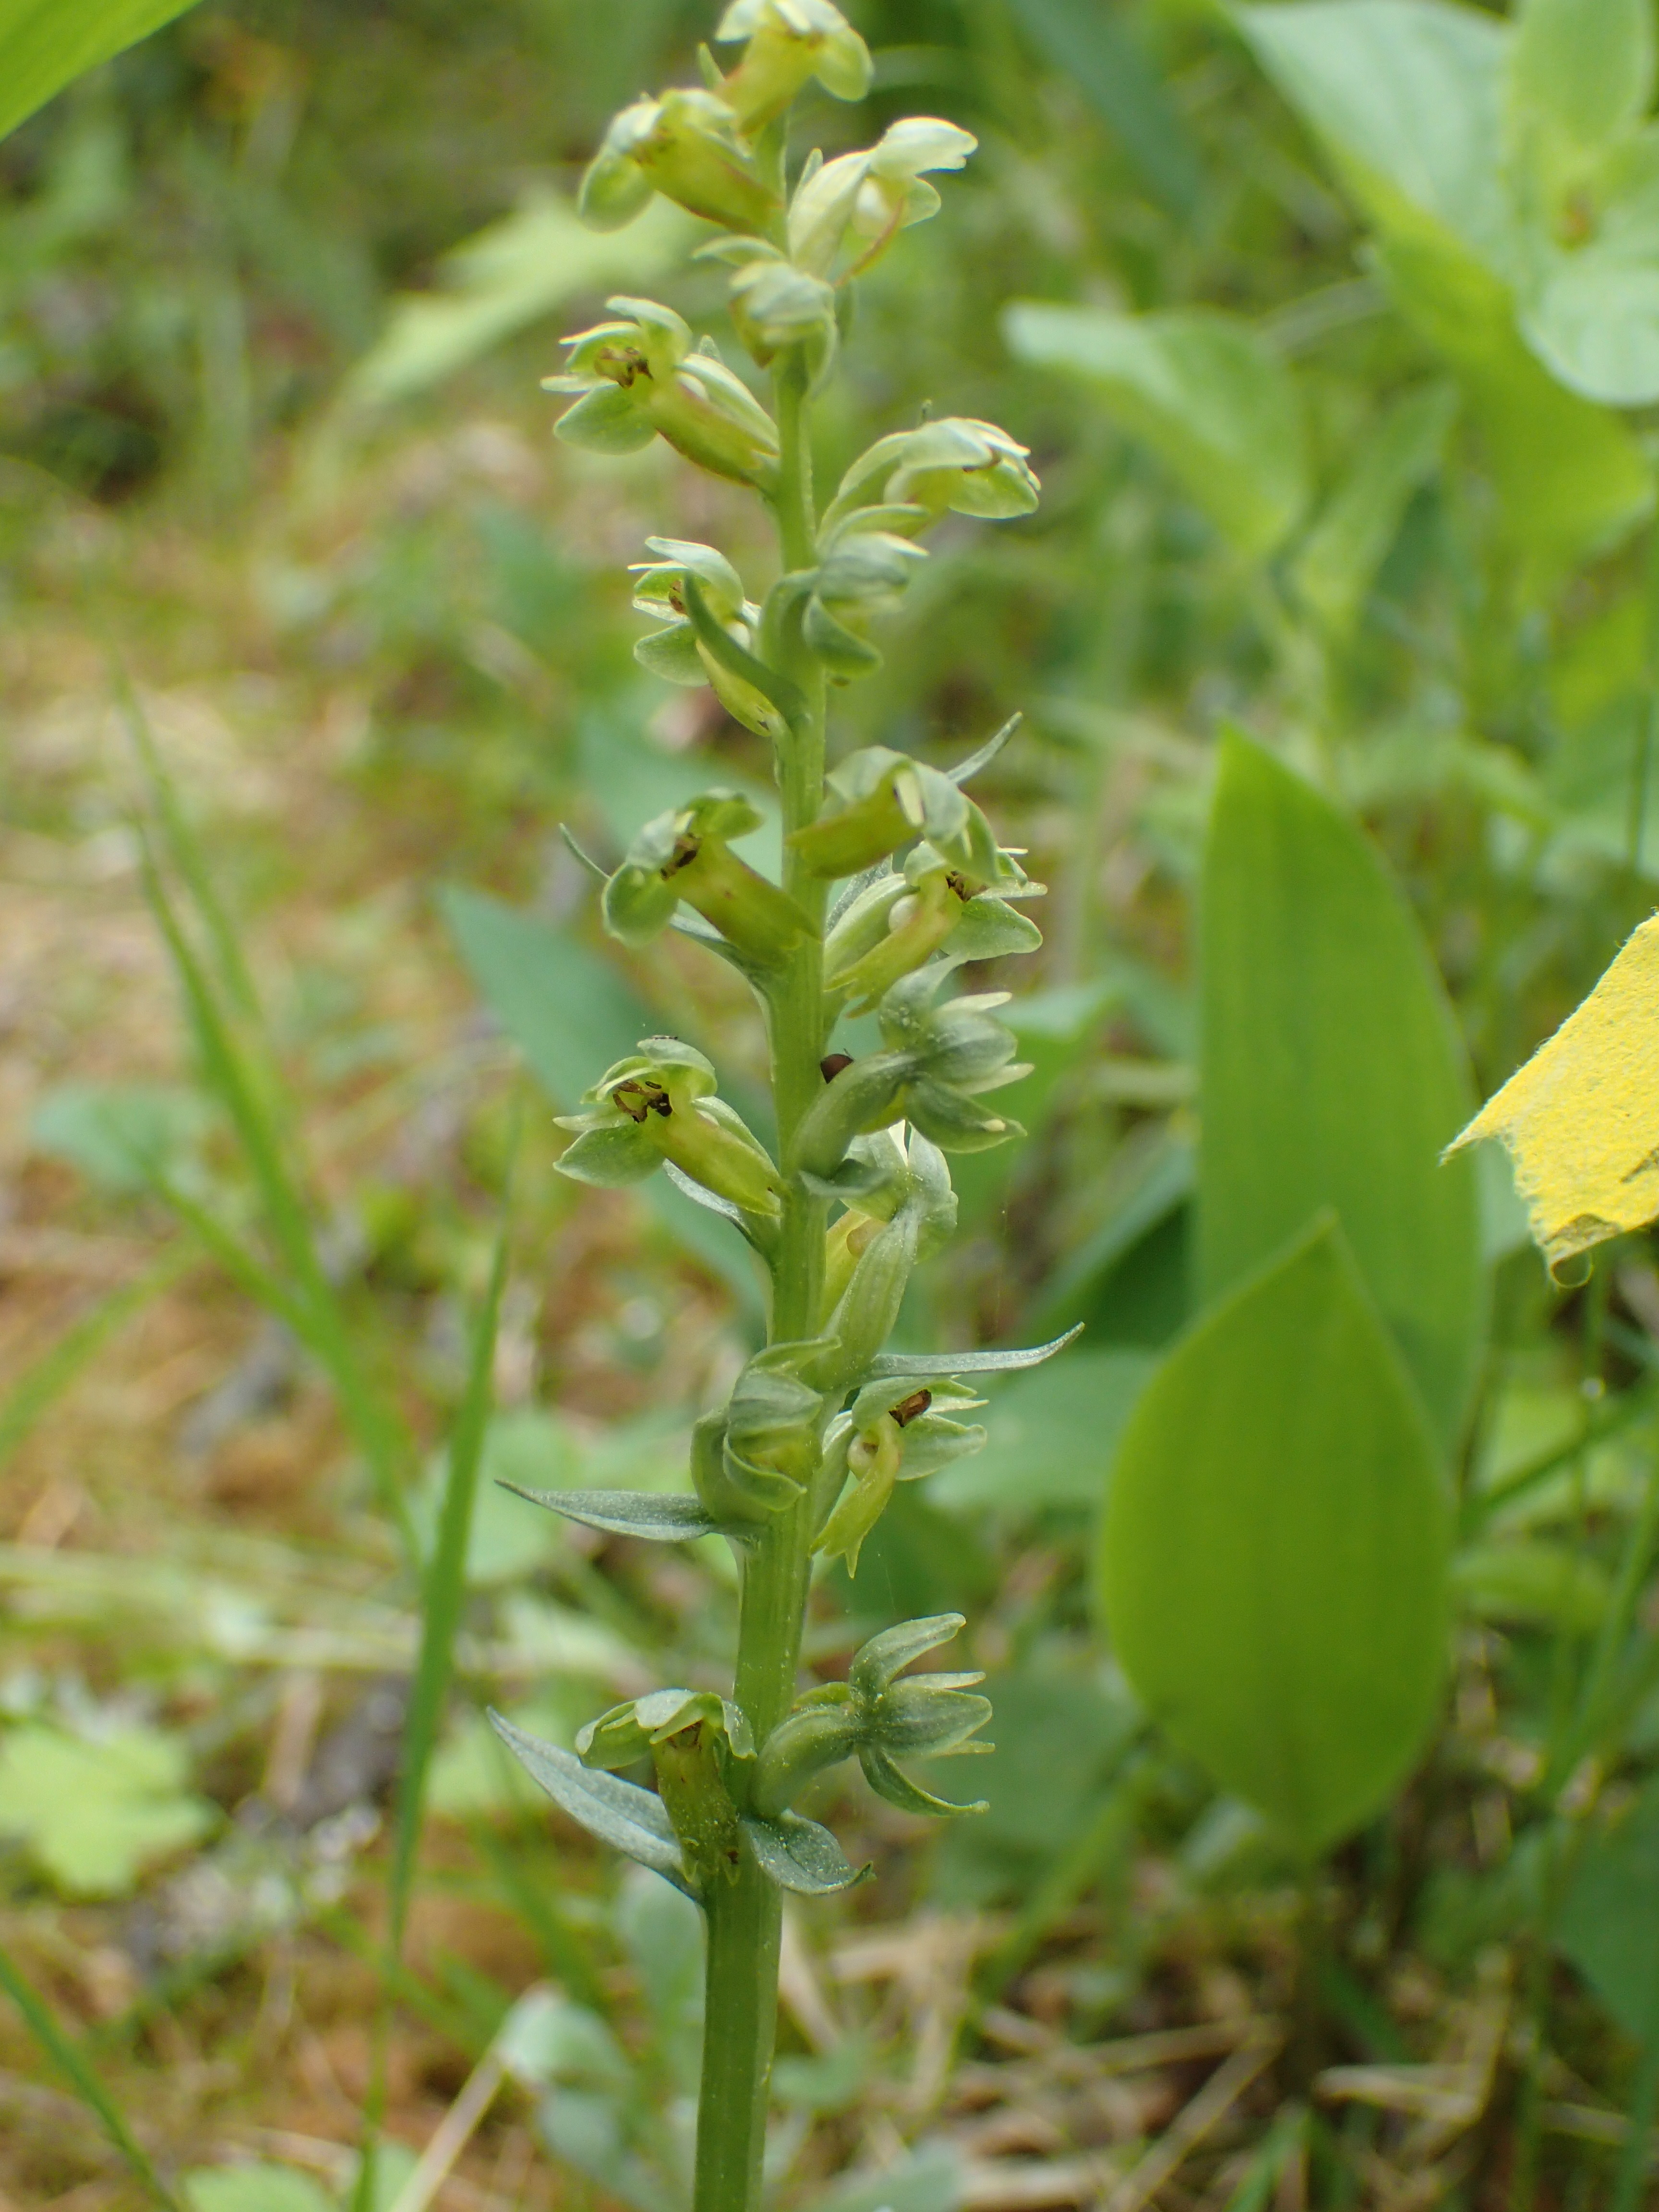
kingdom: Plantae
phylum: Tracheophyta
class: Liliopsida
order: Asparagales
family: Orchidaceae
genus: Dactylorhiza
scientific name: Dactylorhiza viridis
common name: Longbract frog orchid
